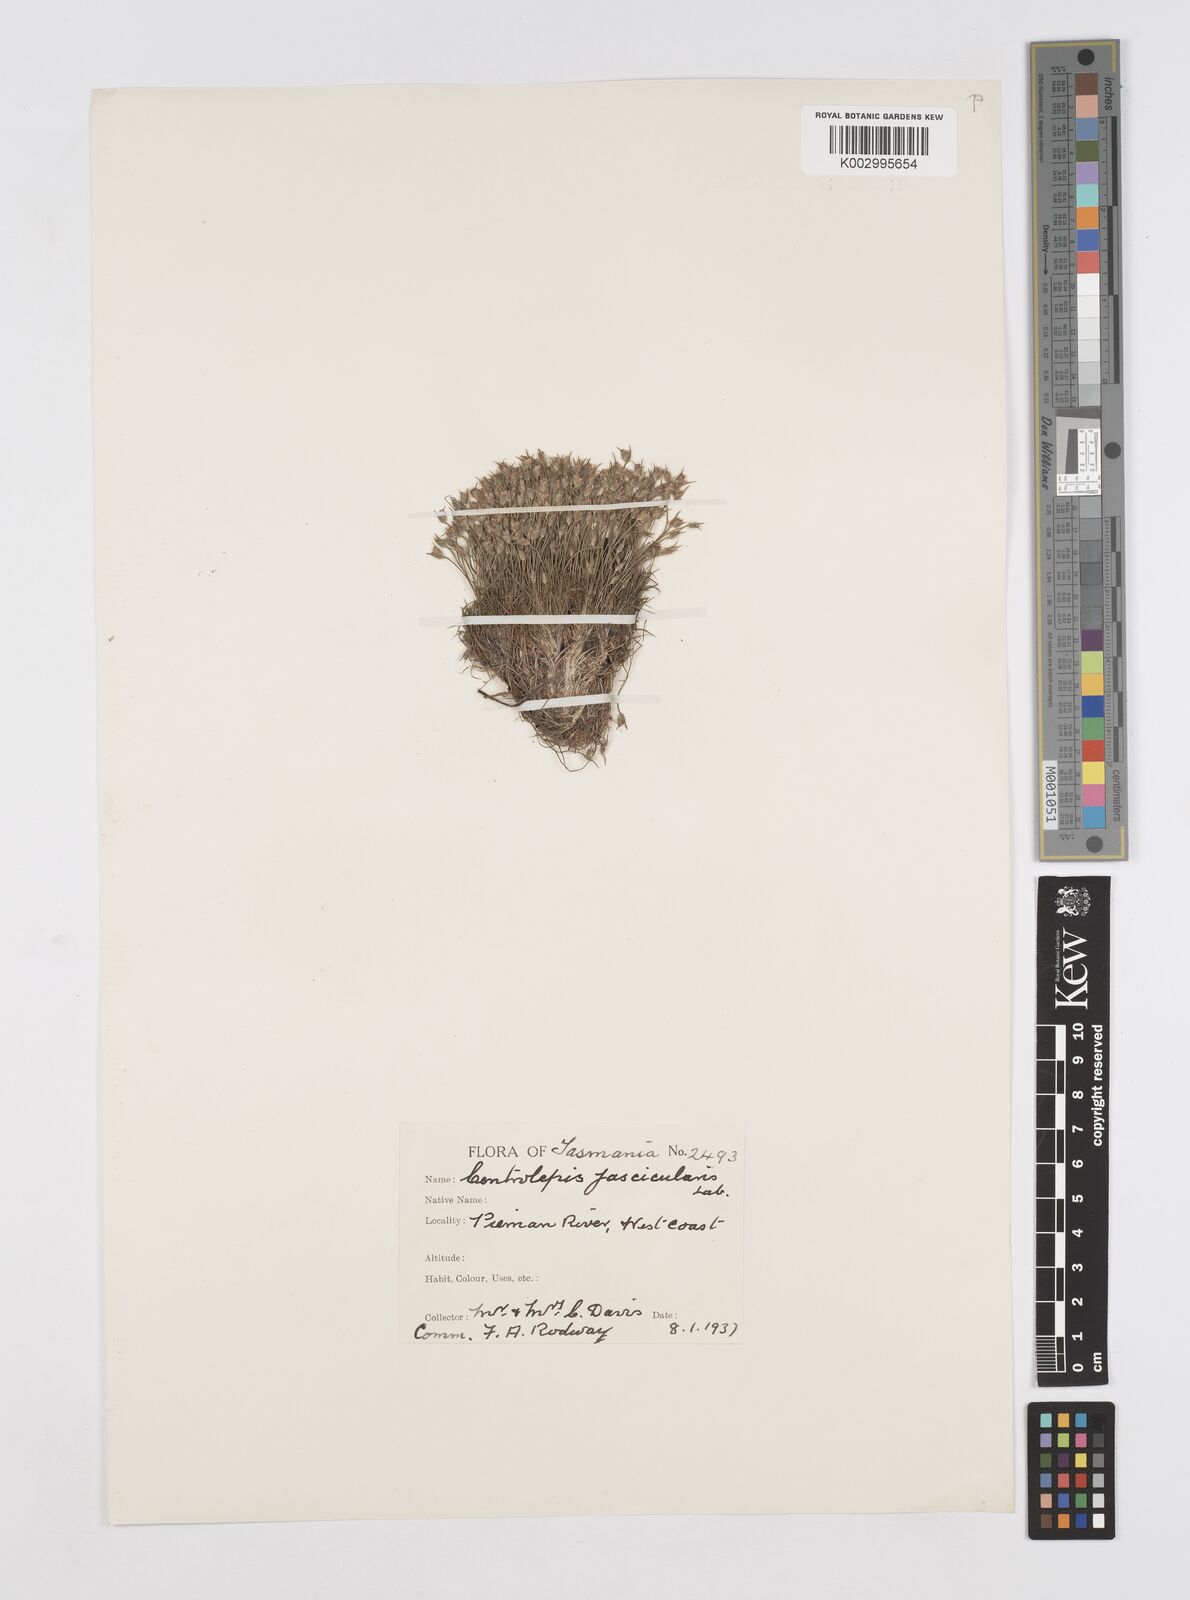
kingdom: Plantae
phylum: Tracheophyta
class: Liliopsida
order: Poales
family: Restionaceae
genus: Centrolepis
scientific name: Centrolepis fascicularis
